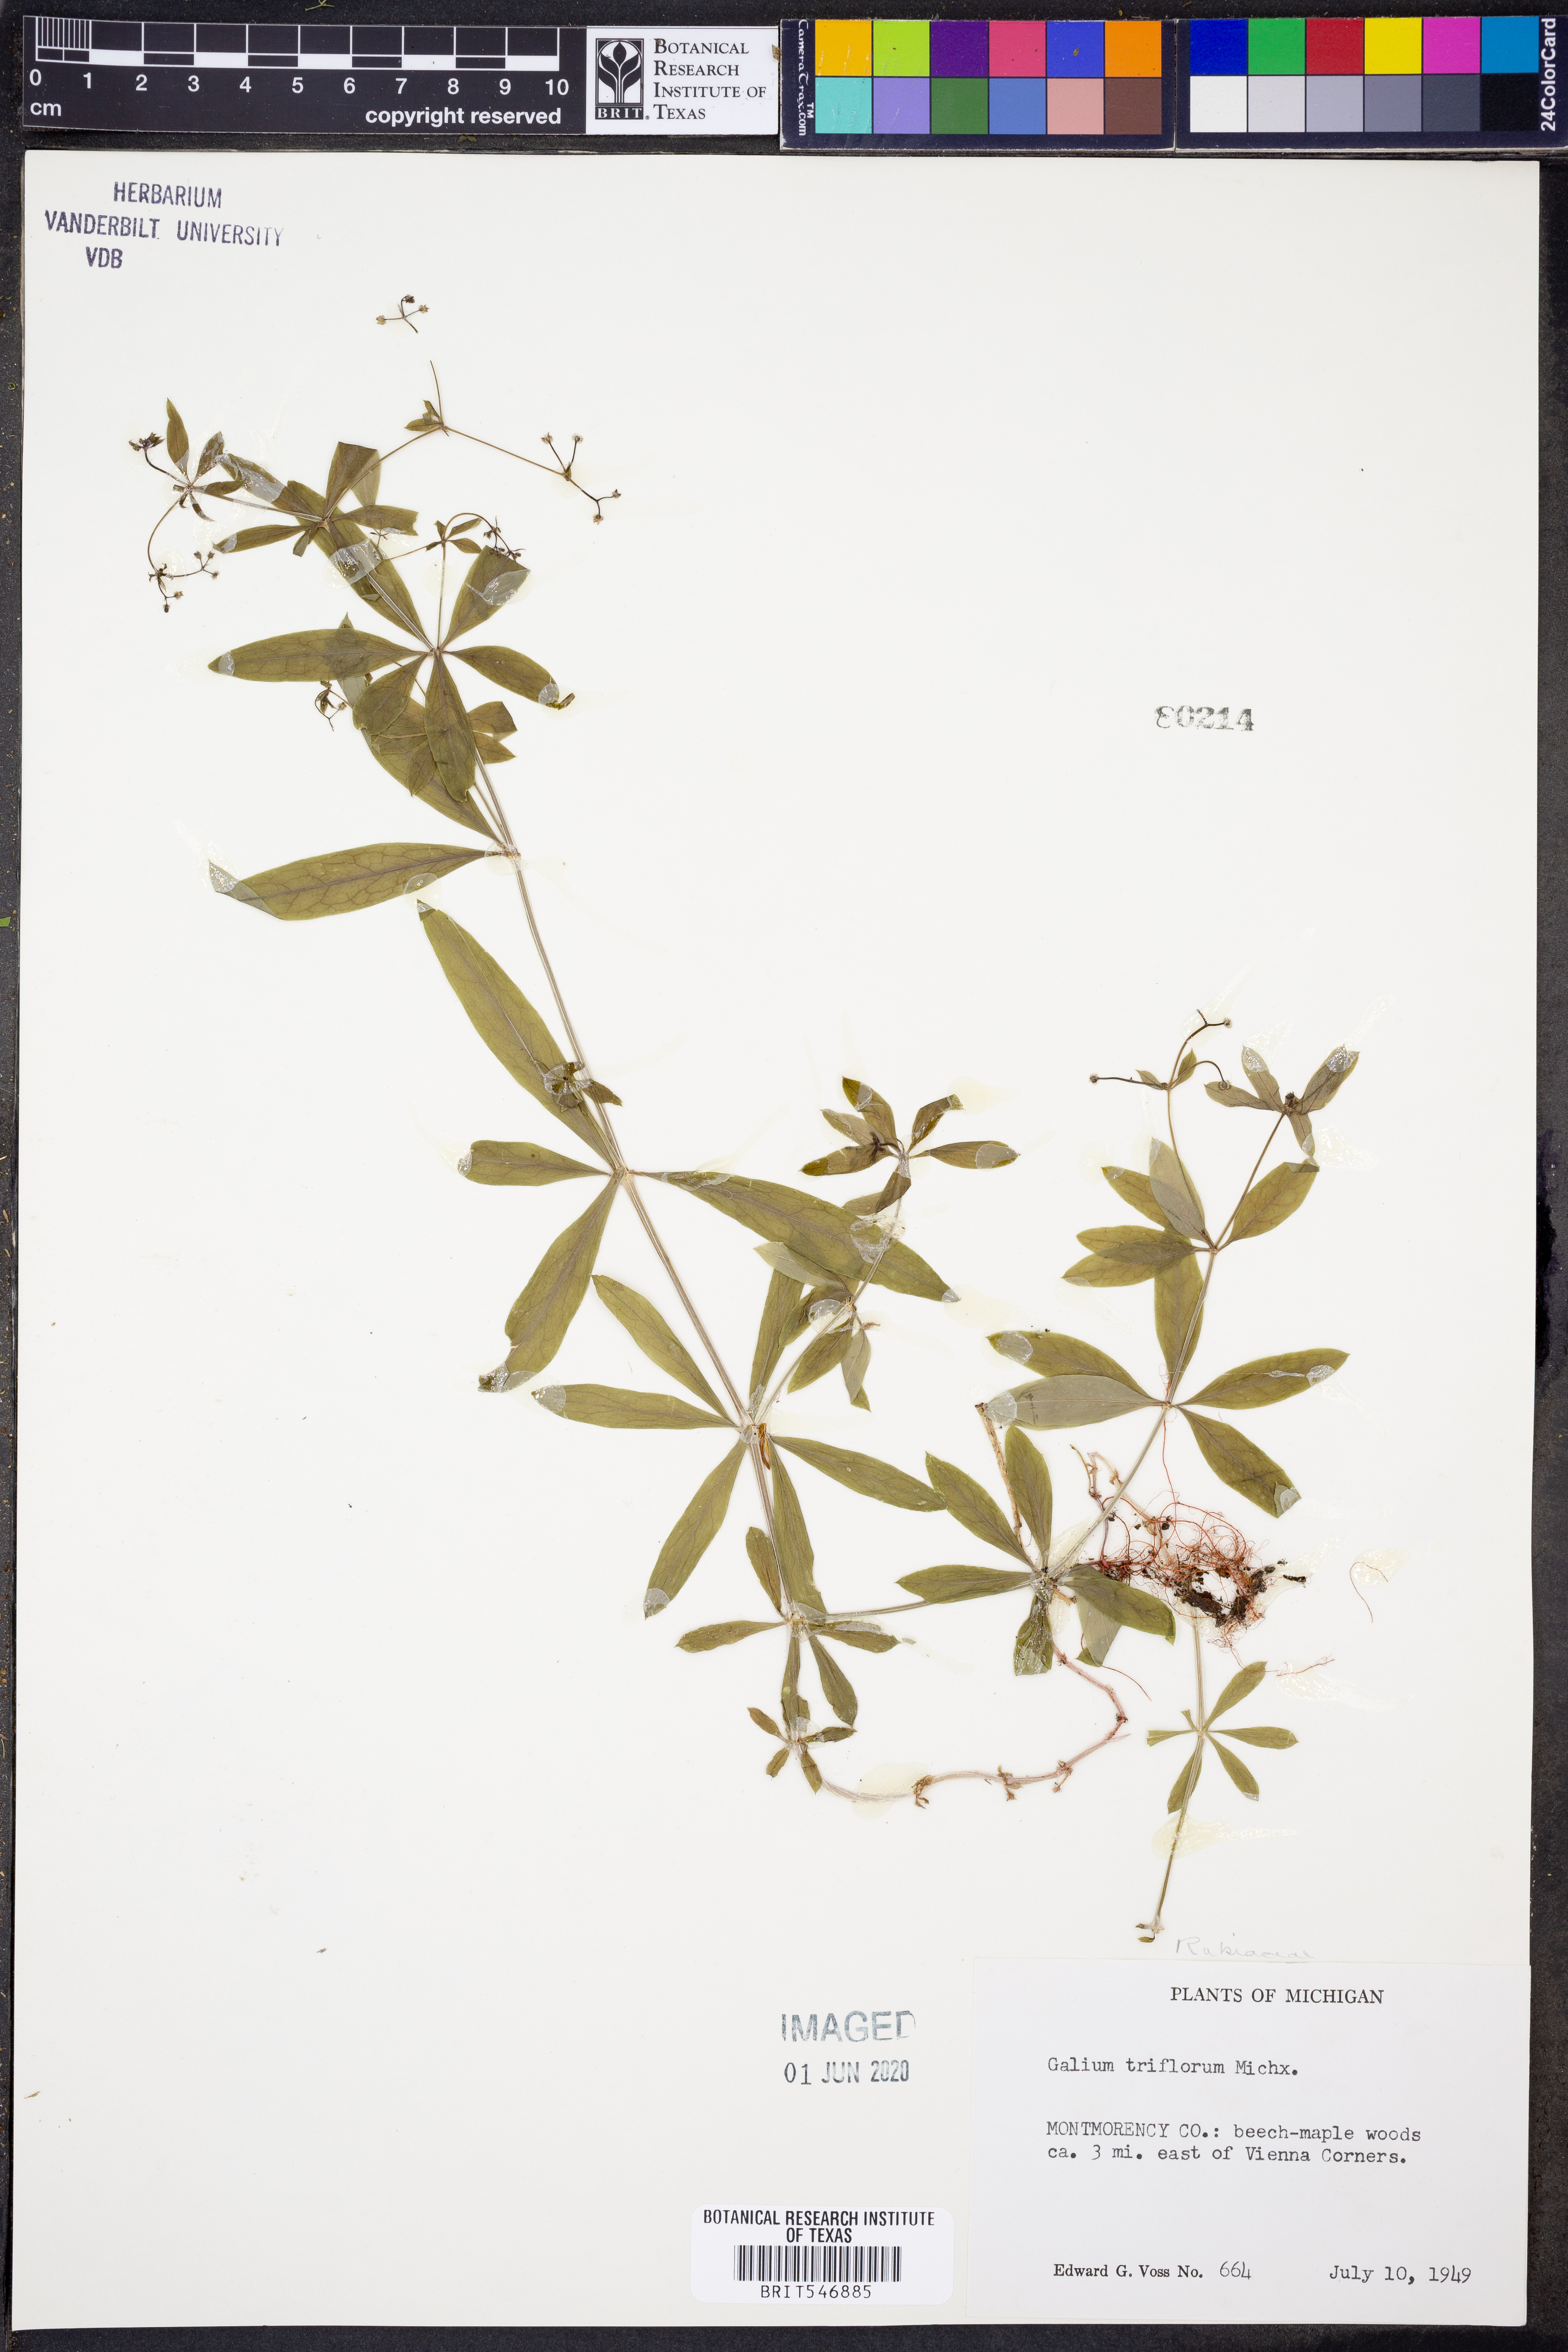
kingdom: Plantae
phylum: Tracheophyta
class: Magnoliopsida
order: Gentianales
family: Rubiaceae
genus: Galium
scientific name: Galium triflorum
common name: Fragrant bedstraw
